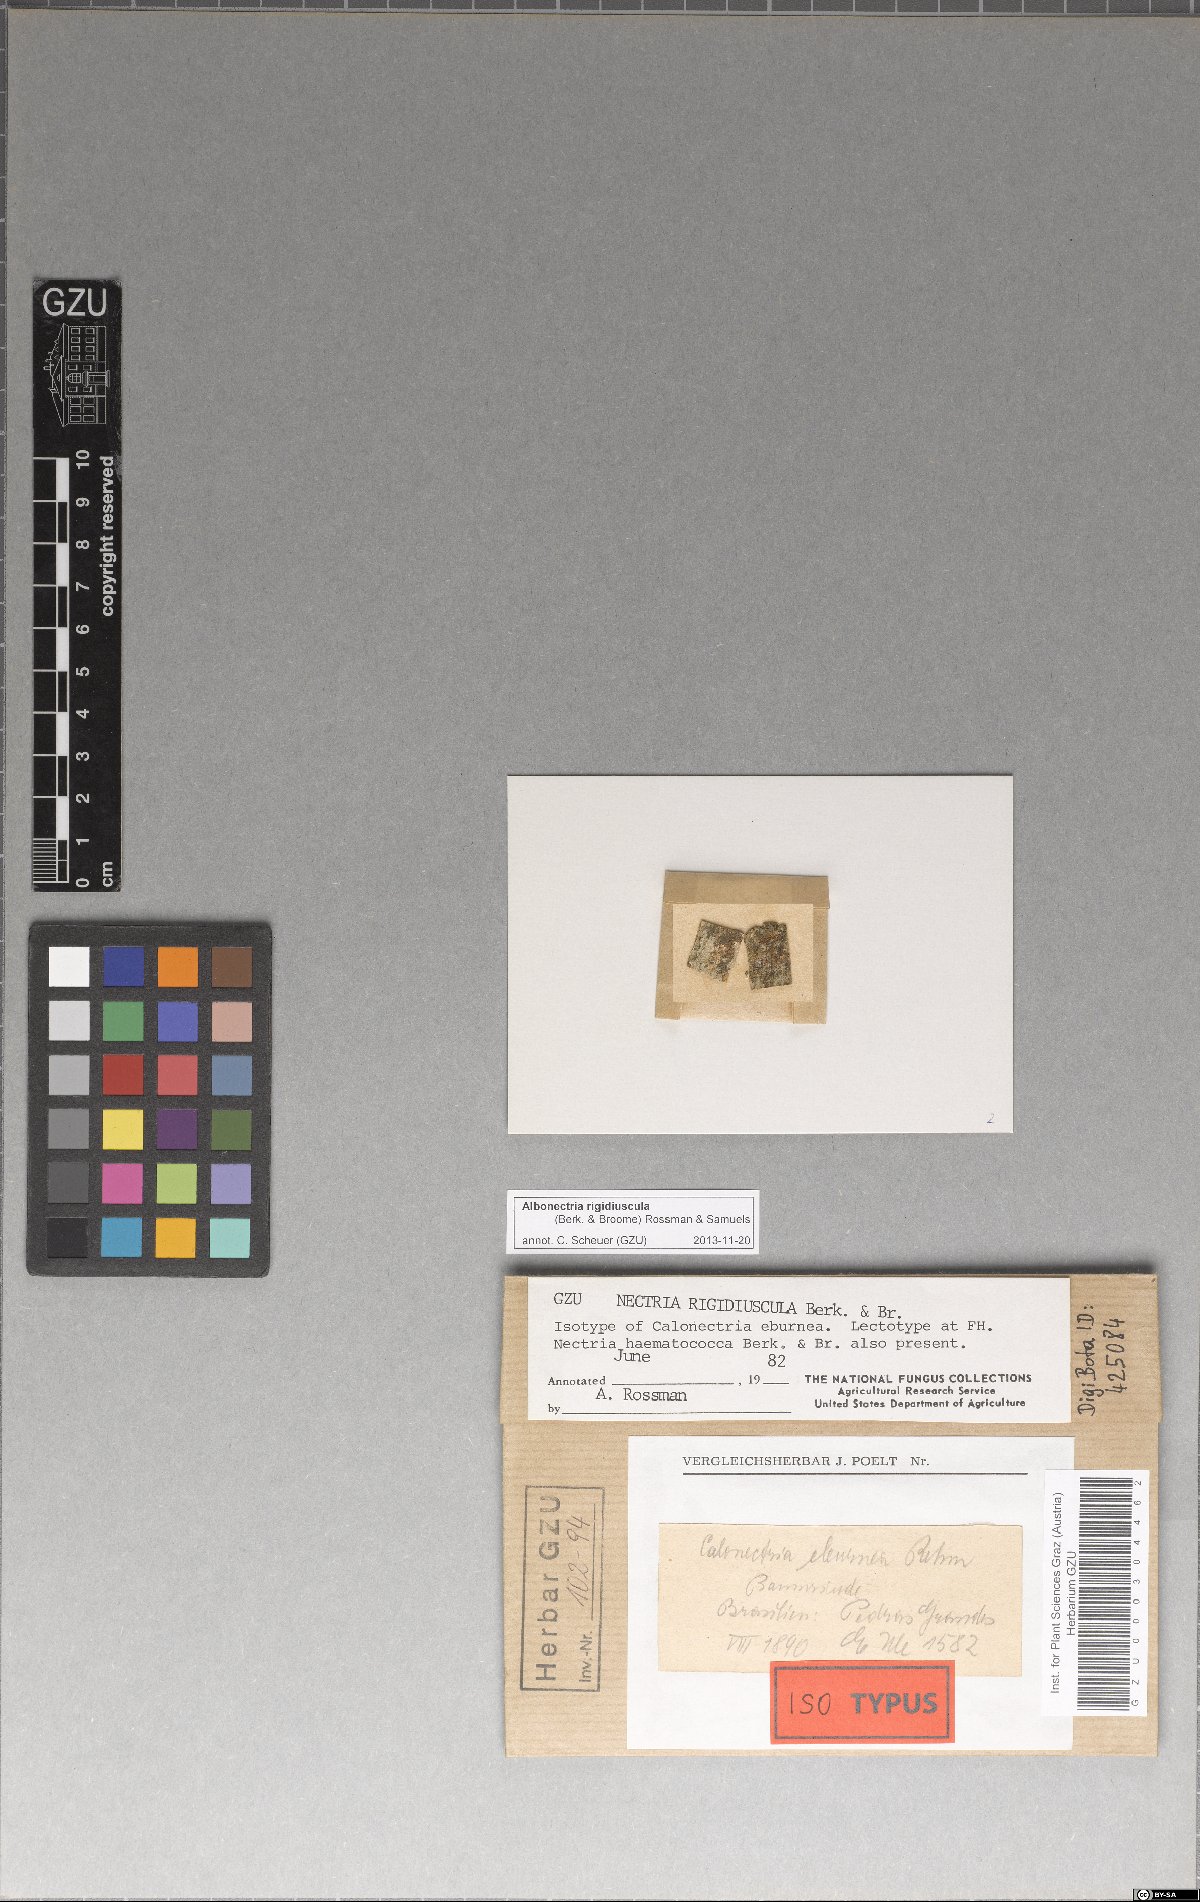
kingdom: Fungi
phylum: Ascomycota
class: Sordariomycetes
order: Hypocreales
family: Nectriaceae
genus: Albonectria
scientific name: Albonectria rigidiuscula
